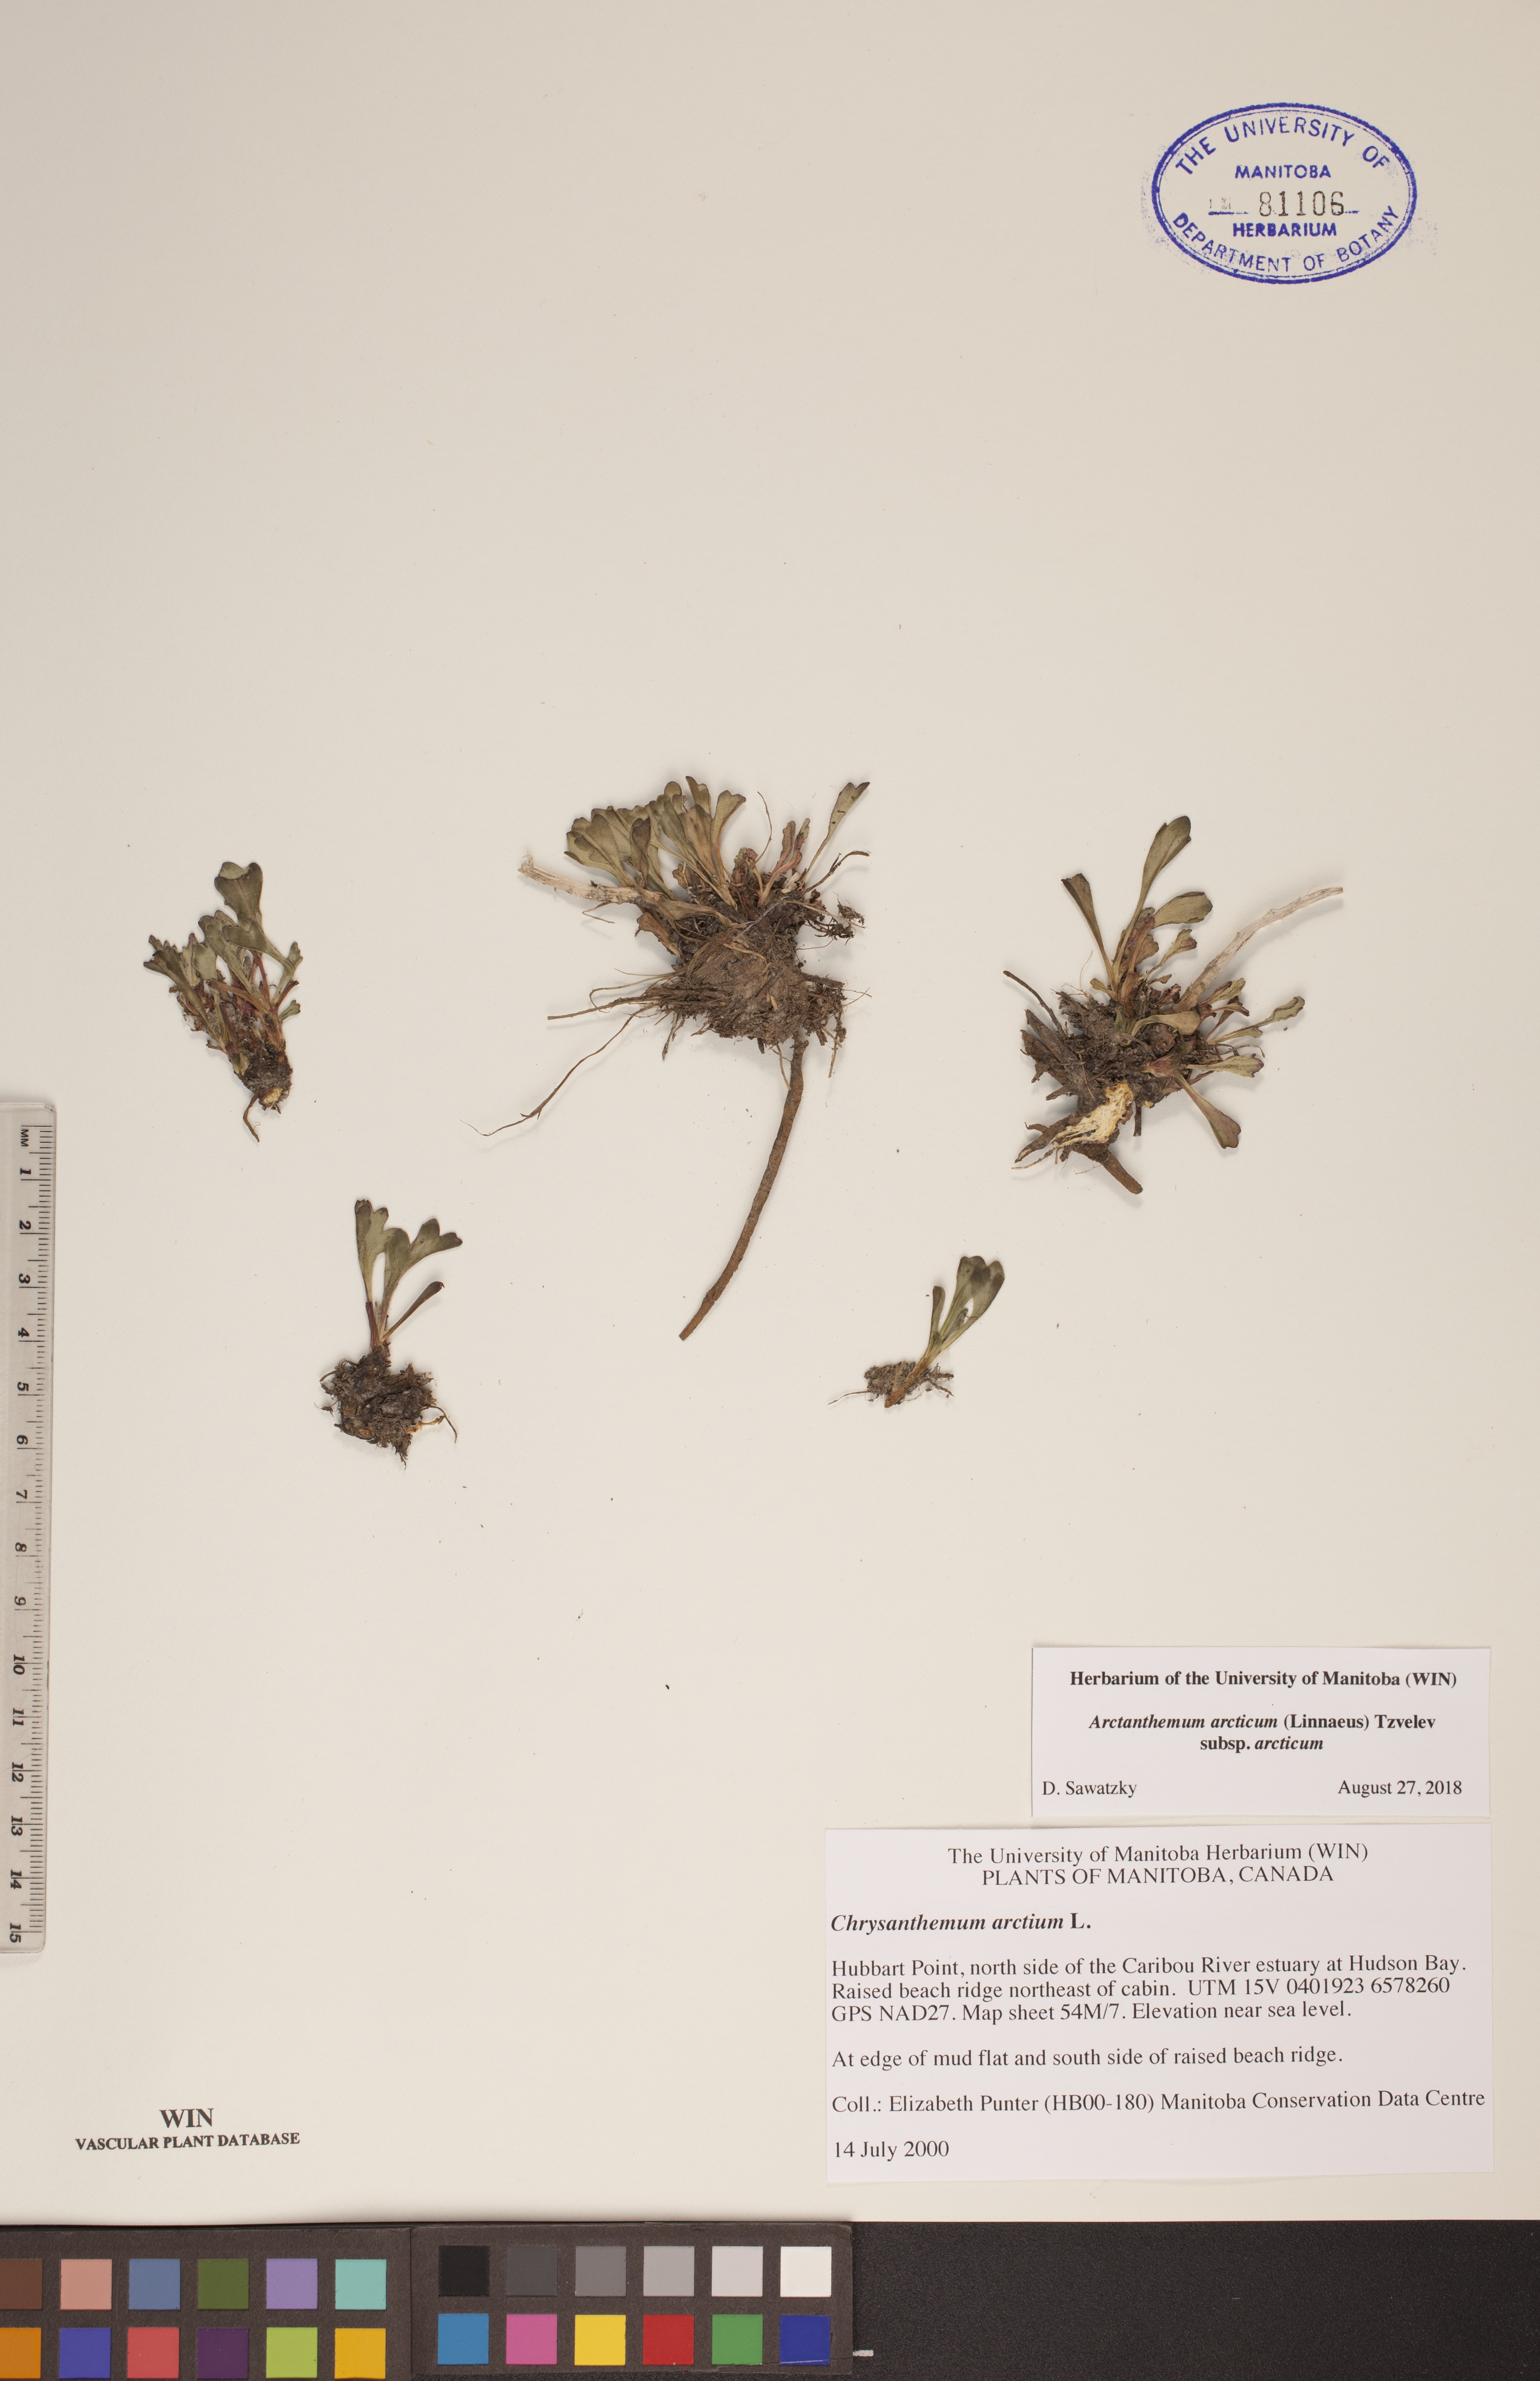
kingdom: Plantae
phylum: Tracheophyta
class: Magnoliopsida
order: Asterales
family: Asteraceae
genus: Arctanthemum
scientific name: Arctanthemum arcticum
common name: Arctic daisy
